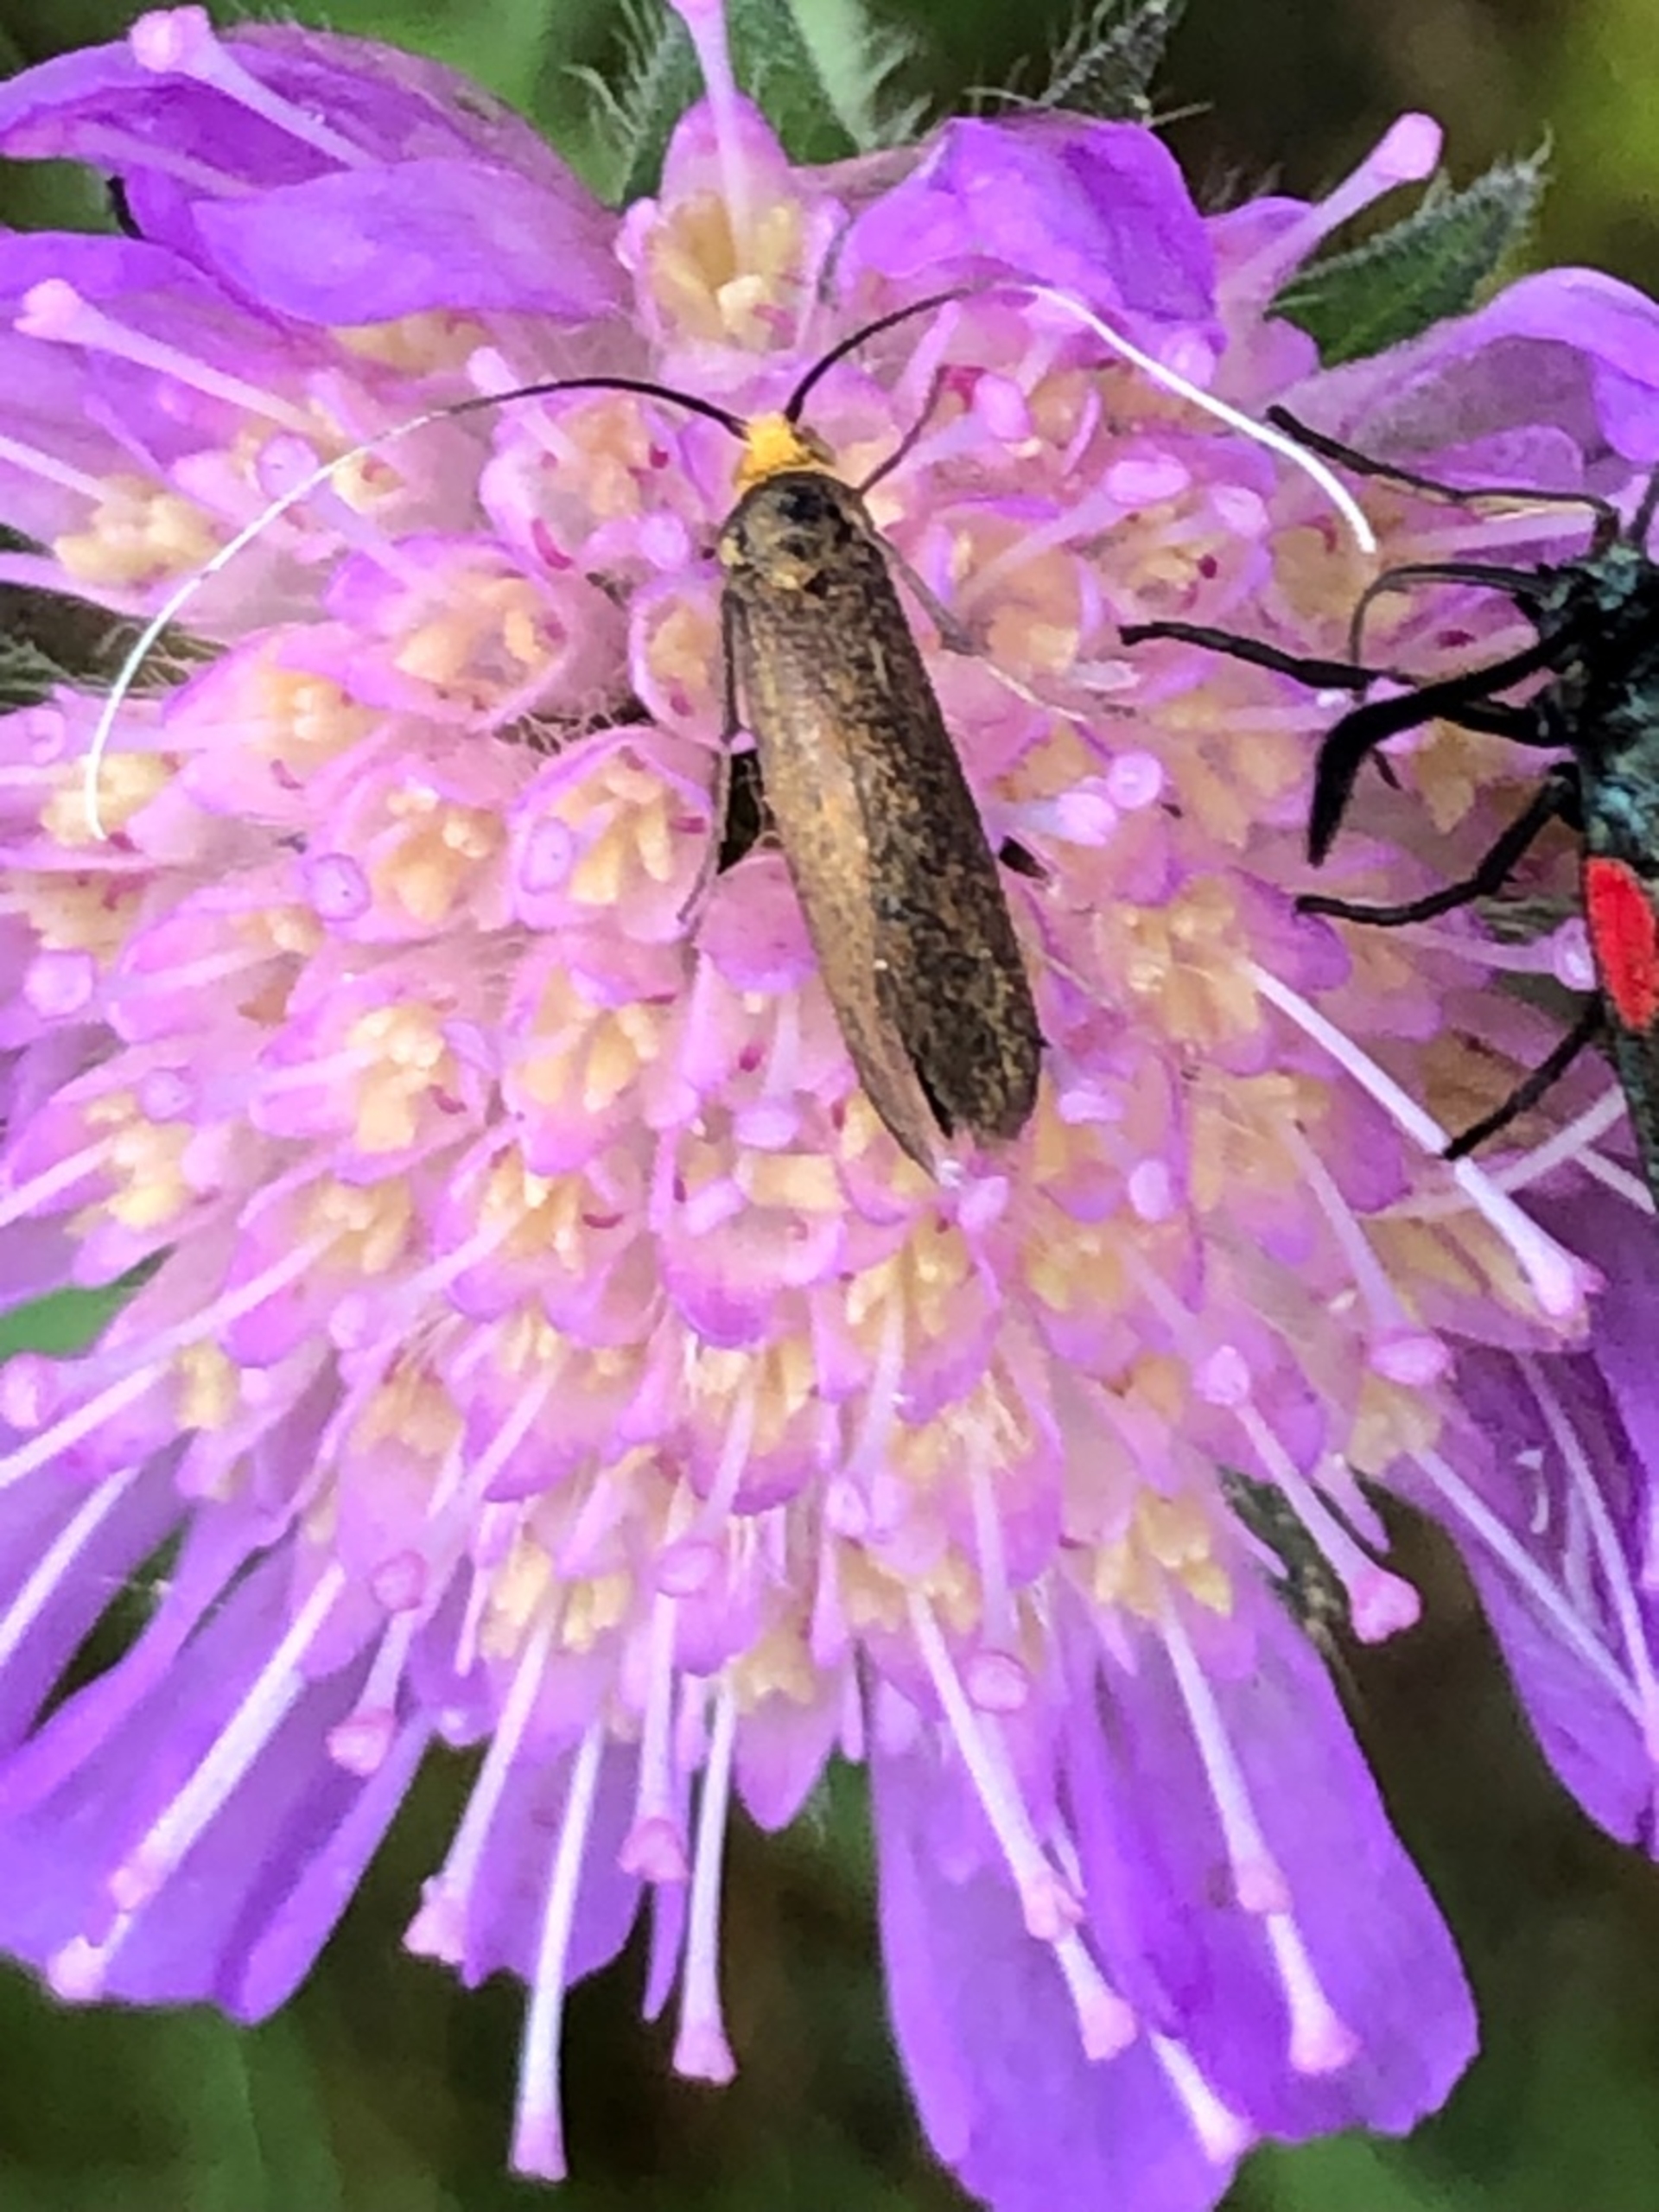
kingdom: Animalia
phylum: Arthropoda
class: Insecta
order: Lepidoptera
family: Adelidae
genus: Nemophora
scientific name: Nemophora cupriacella
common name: Blåhatlanghornsmøl
